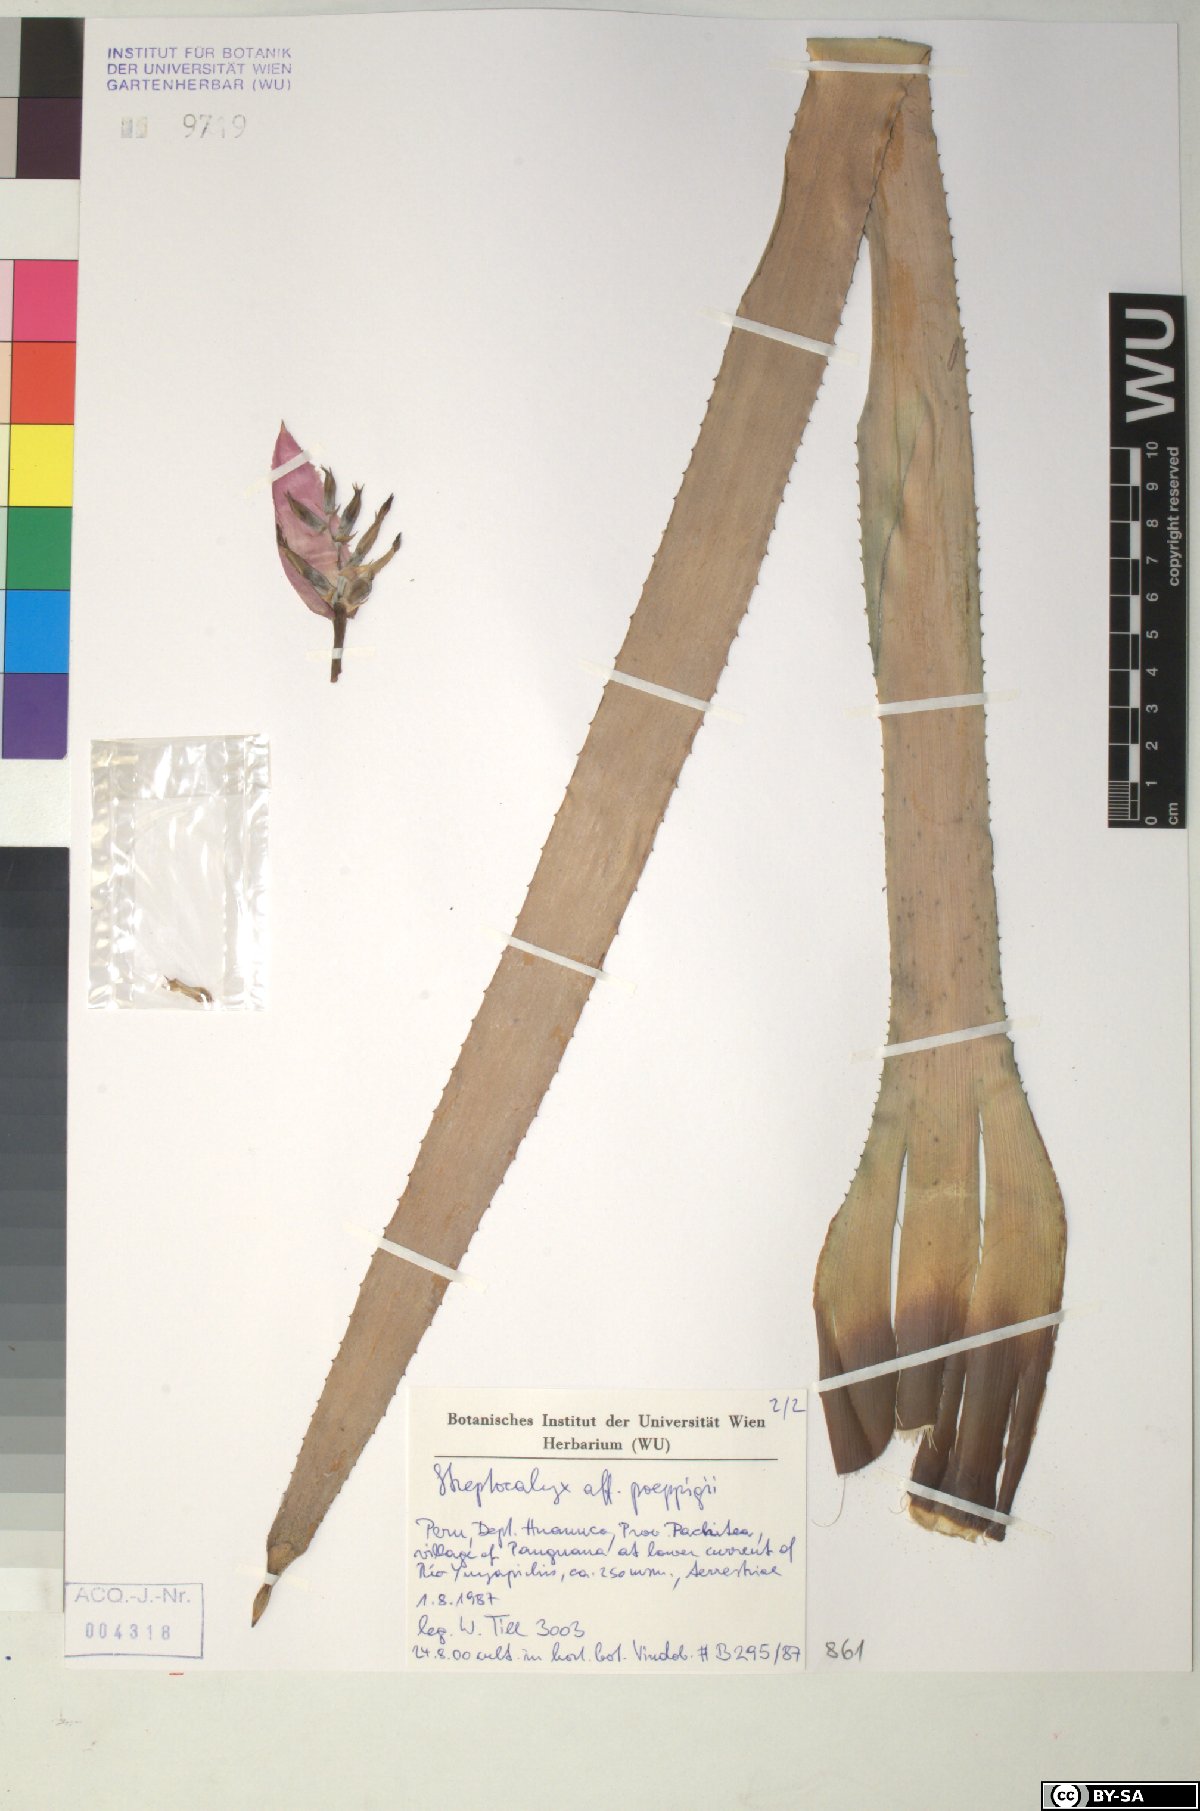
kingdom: Plantae
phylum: Tracheophyta
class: Liliopsida
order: Poales
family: Bromeliaceae
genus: Aechmea
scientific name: Aechmea vallerandii
